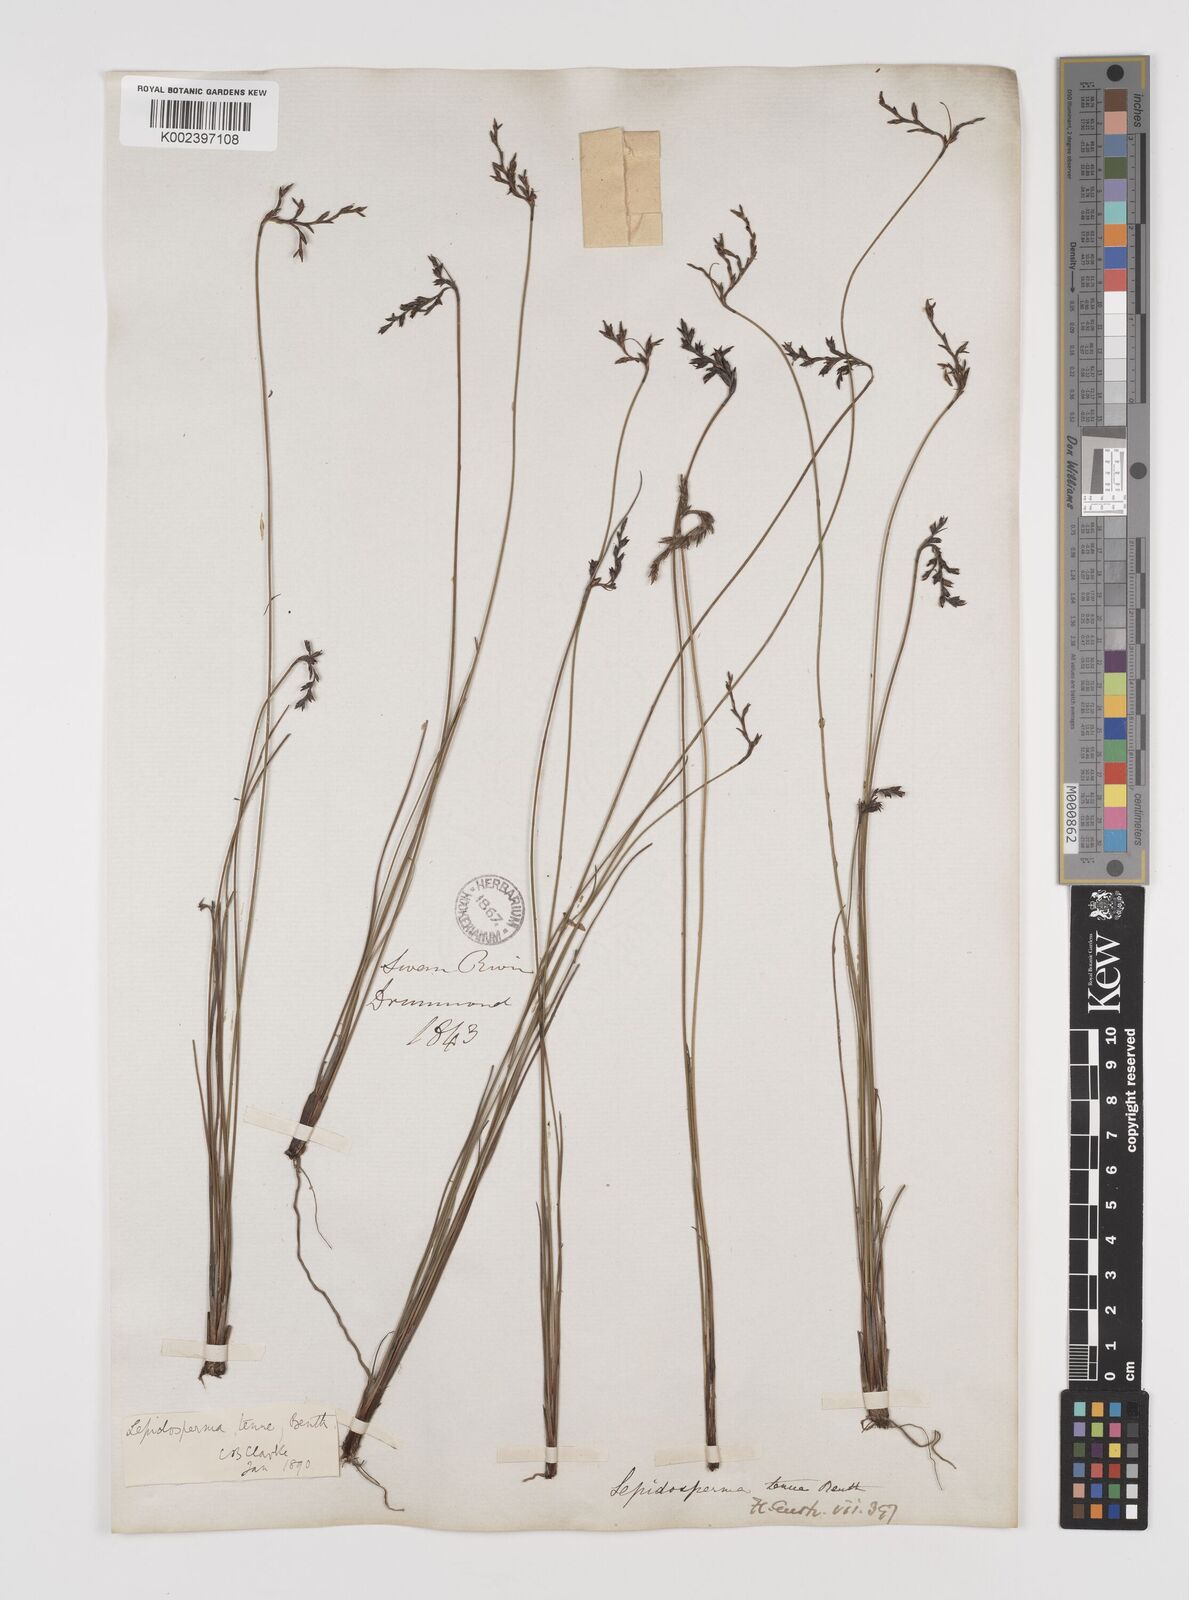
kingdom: Plantae
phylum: Tracheophyta
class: Liliopsida
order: Poales
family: Cyperaceae
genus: Lepidosperma
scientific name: Lepidosperma tenue
